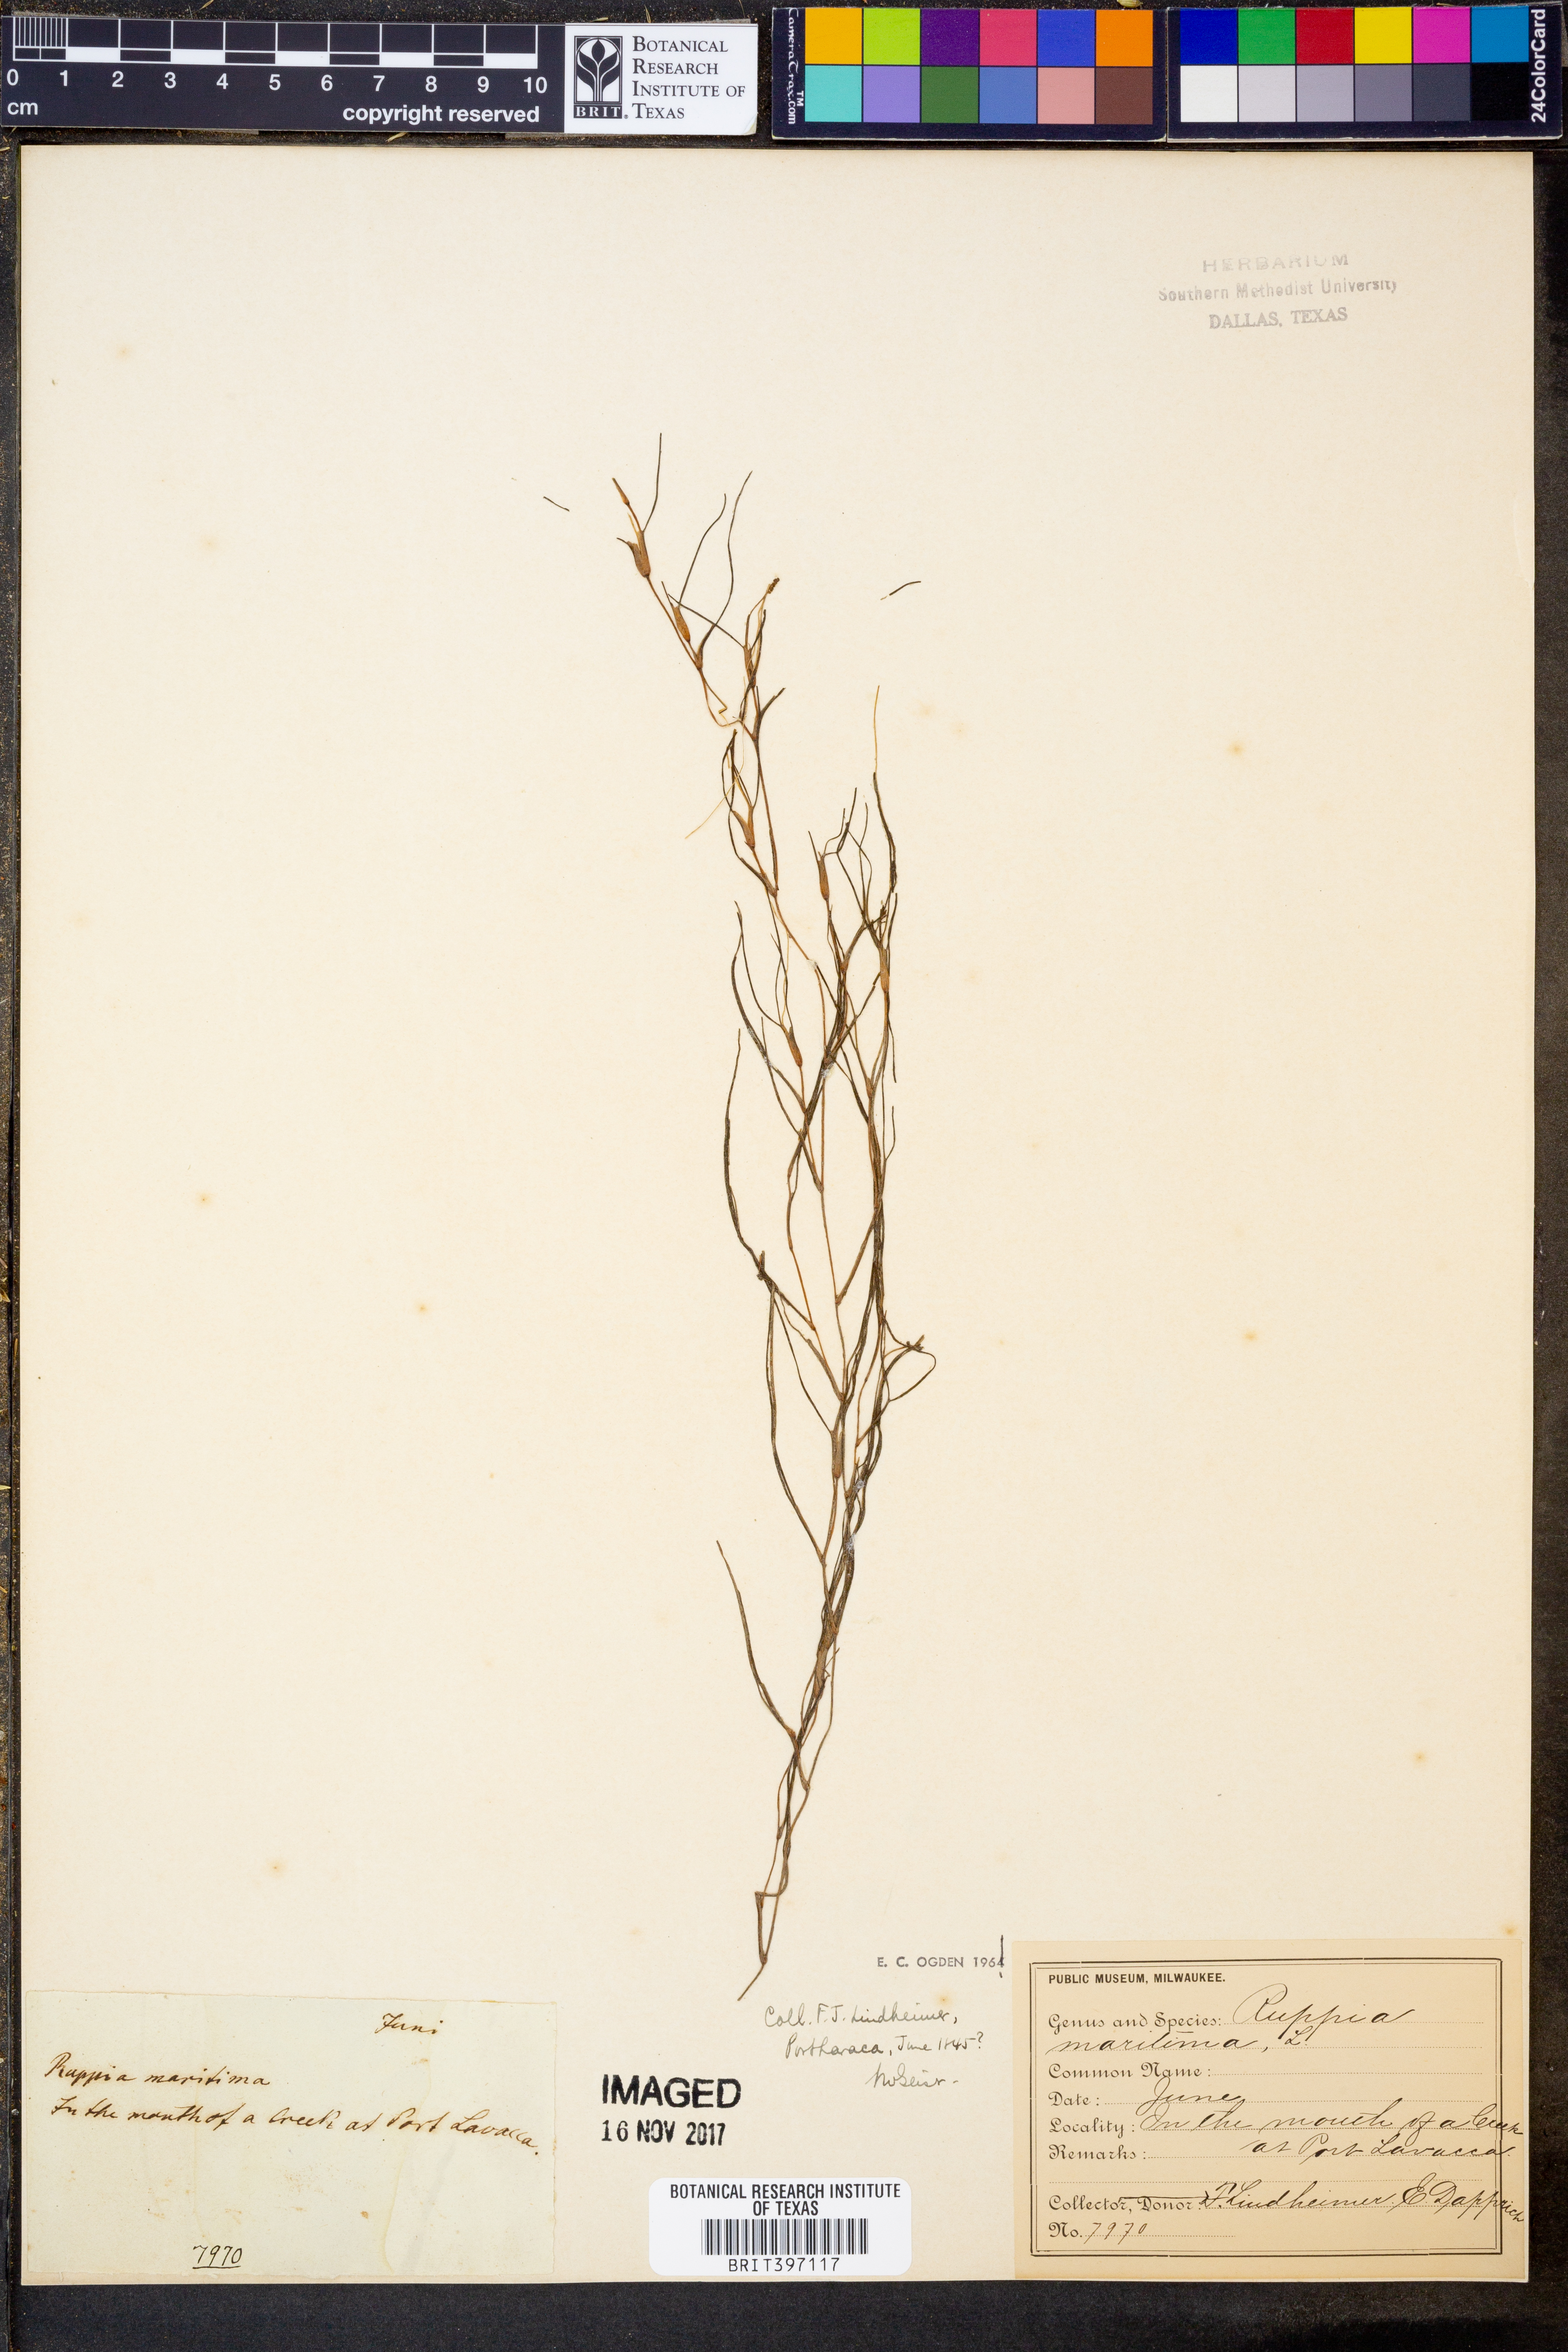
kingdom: Plantae
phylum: Tracheophyta
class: Liliopsida
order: Alismatales
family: Ruppiaceae
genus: Ruppia
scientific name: Ruppia maritima
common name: Beaked tasselweed
